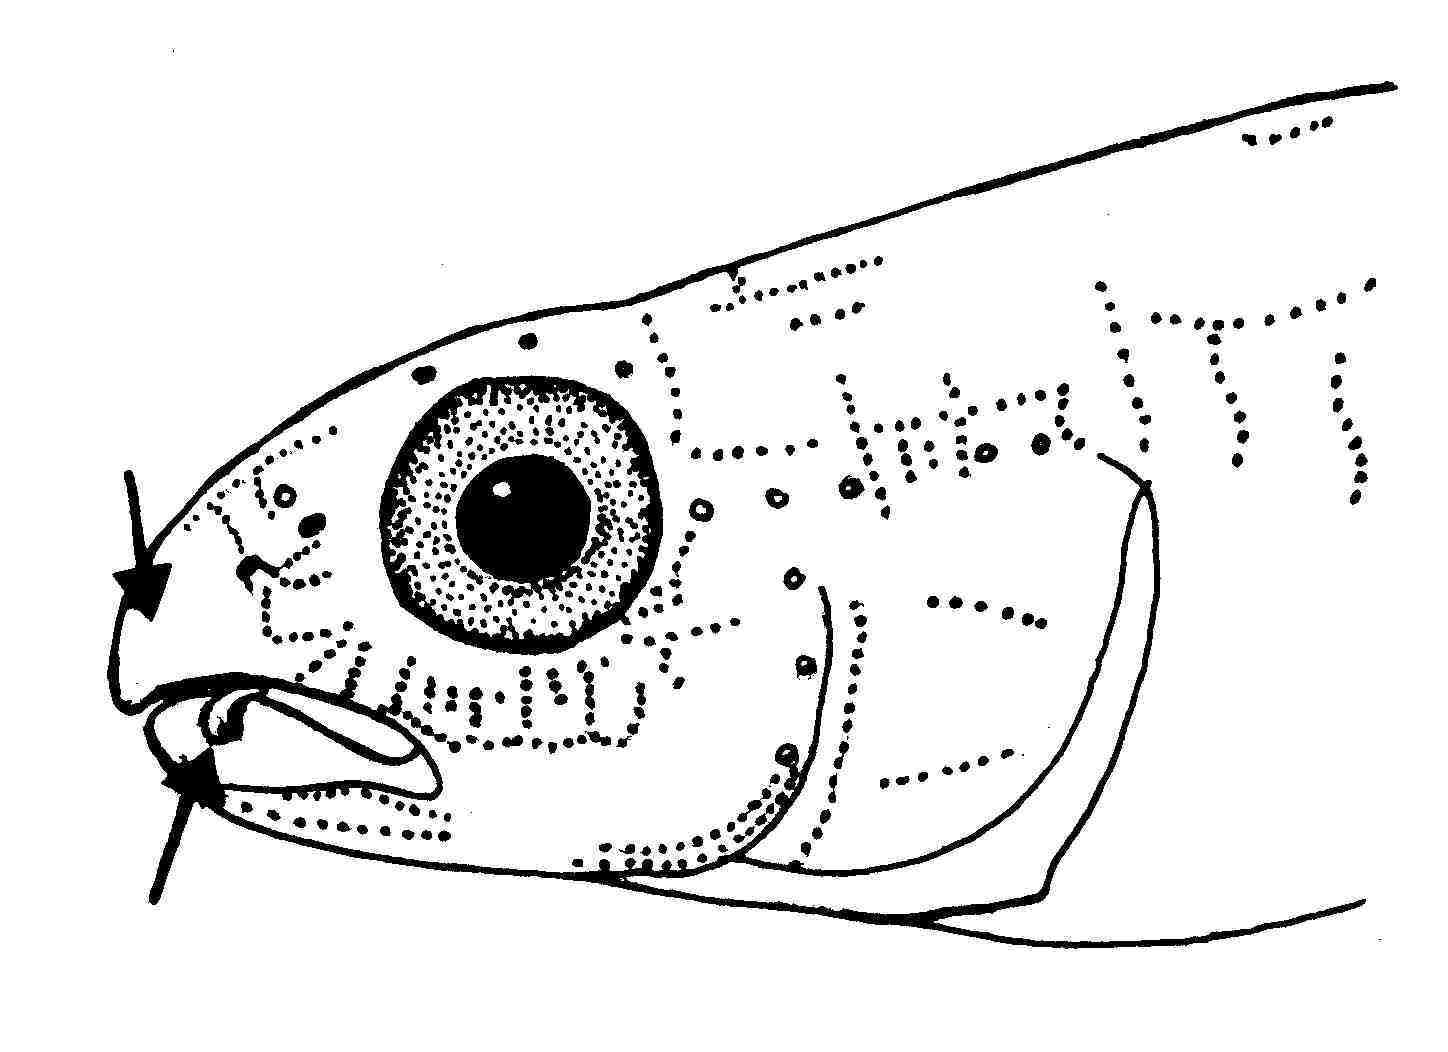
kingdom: Animalia
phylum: Chordata
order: Perciformes
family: Gobiidae
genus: Koumansetta
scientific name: Koumansetta hectori
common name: Hector's goby
